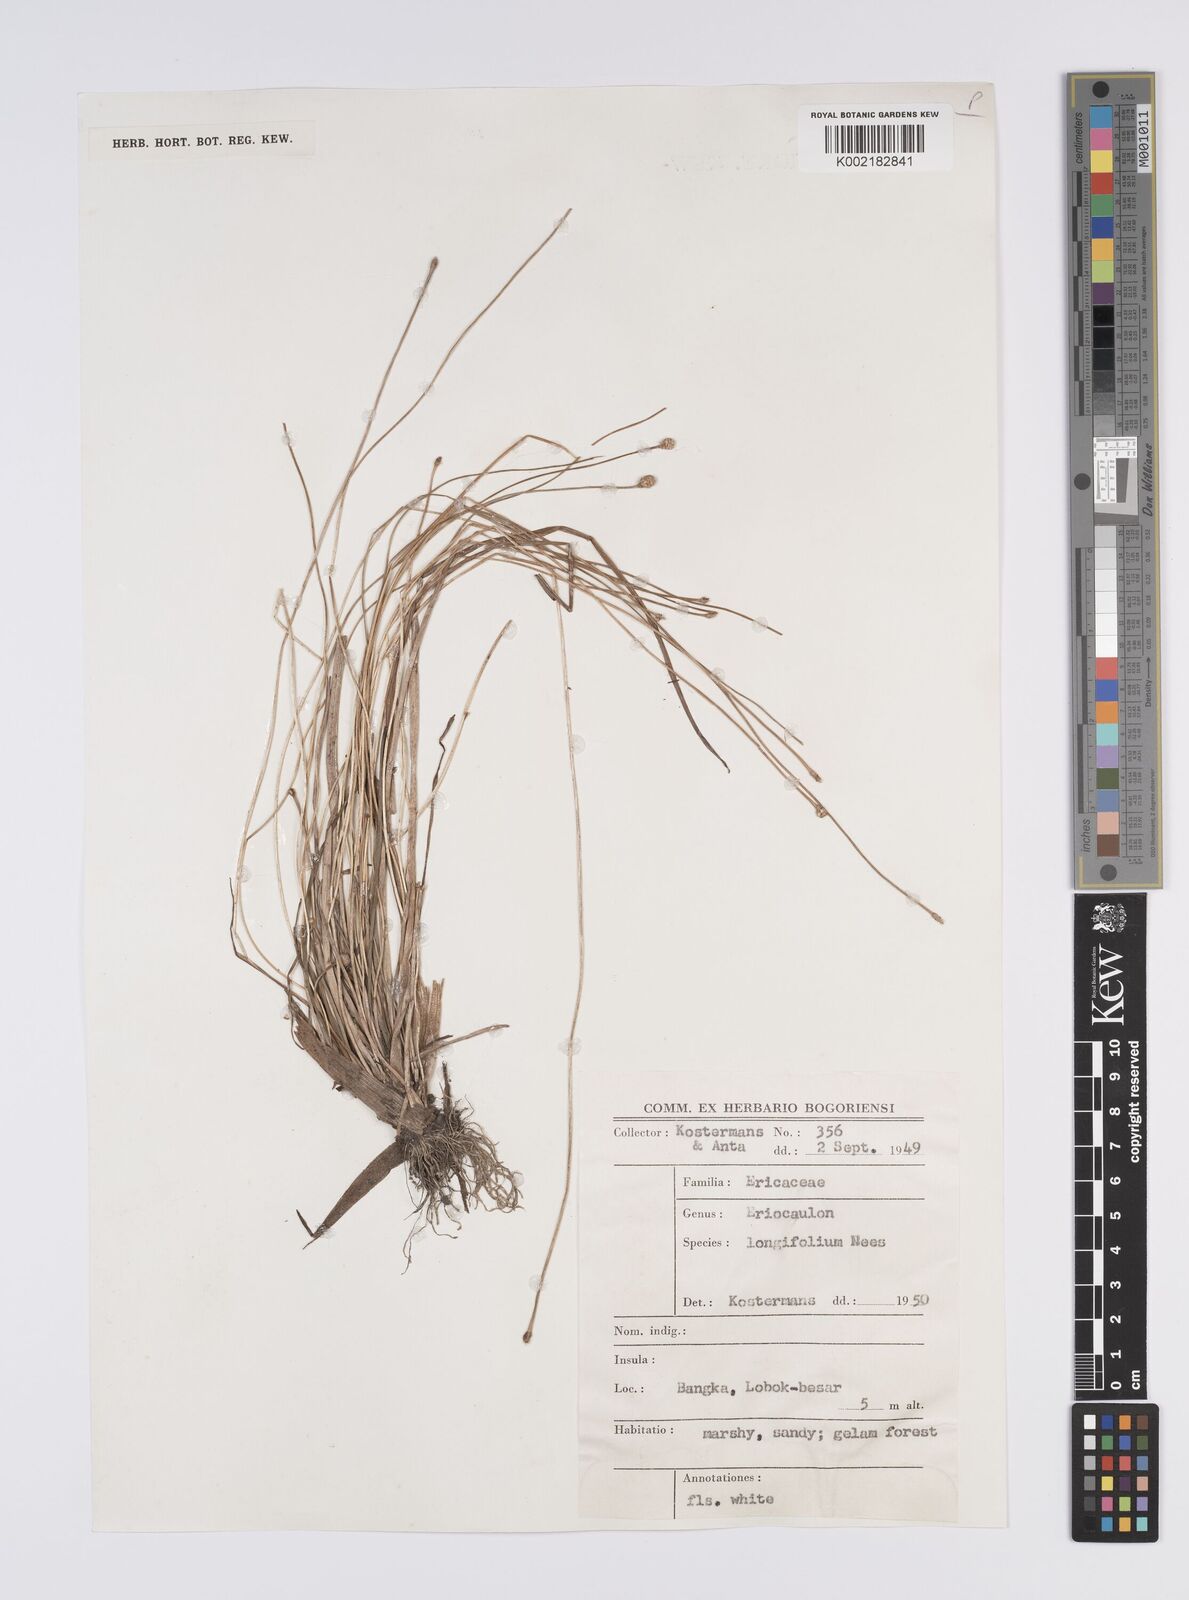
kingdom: Plantae
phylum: Tracheophyta
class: Liliopsida
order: Poales
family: Eriocaulaceae
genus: Eriocaulon
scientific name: Eriocaulon willdenovianum
